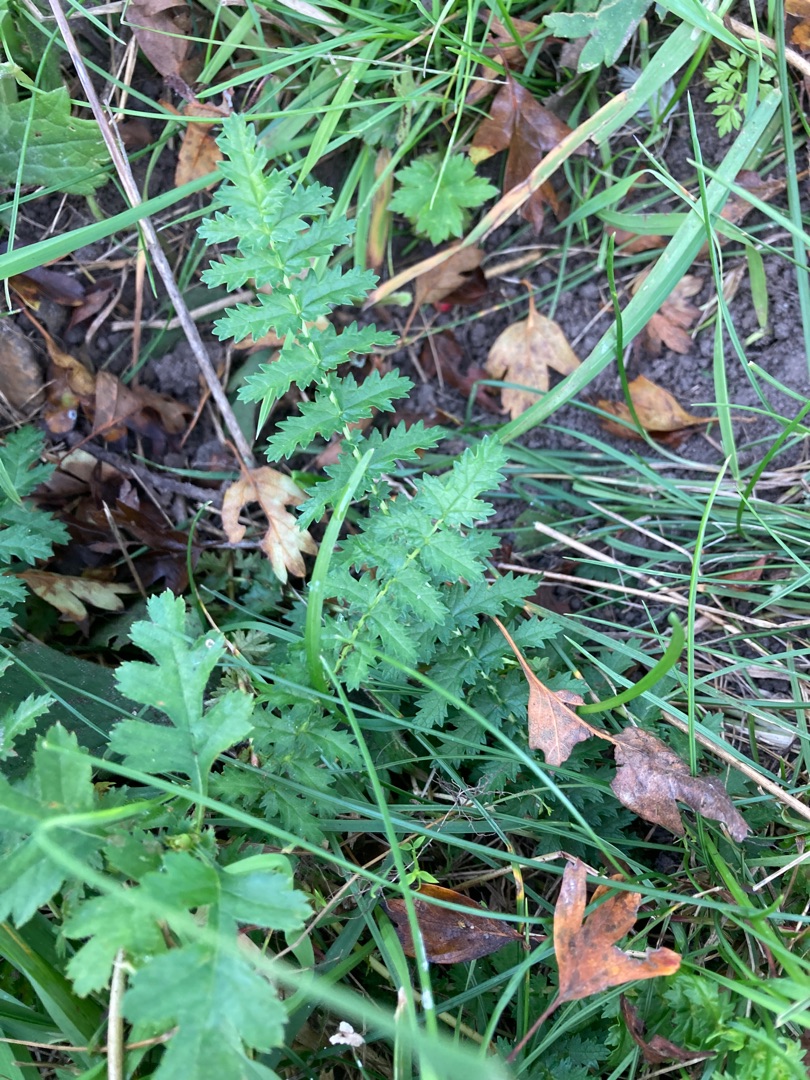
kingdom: Plantae
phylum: Tracheophyta
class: Magnoliopsida
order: Rosales
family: Rosaceae
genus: Filipendula
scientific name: Filipendula vulgaris
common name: Knoldet mjødurt
